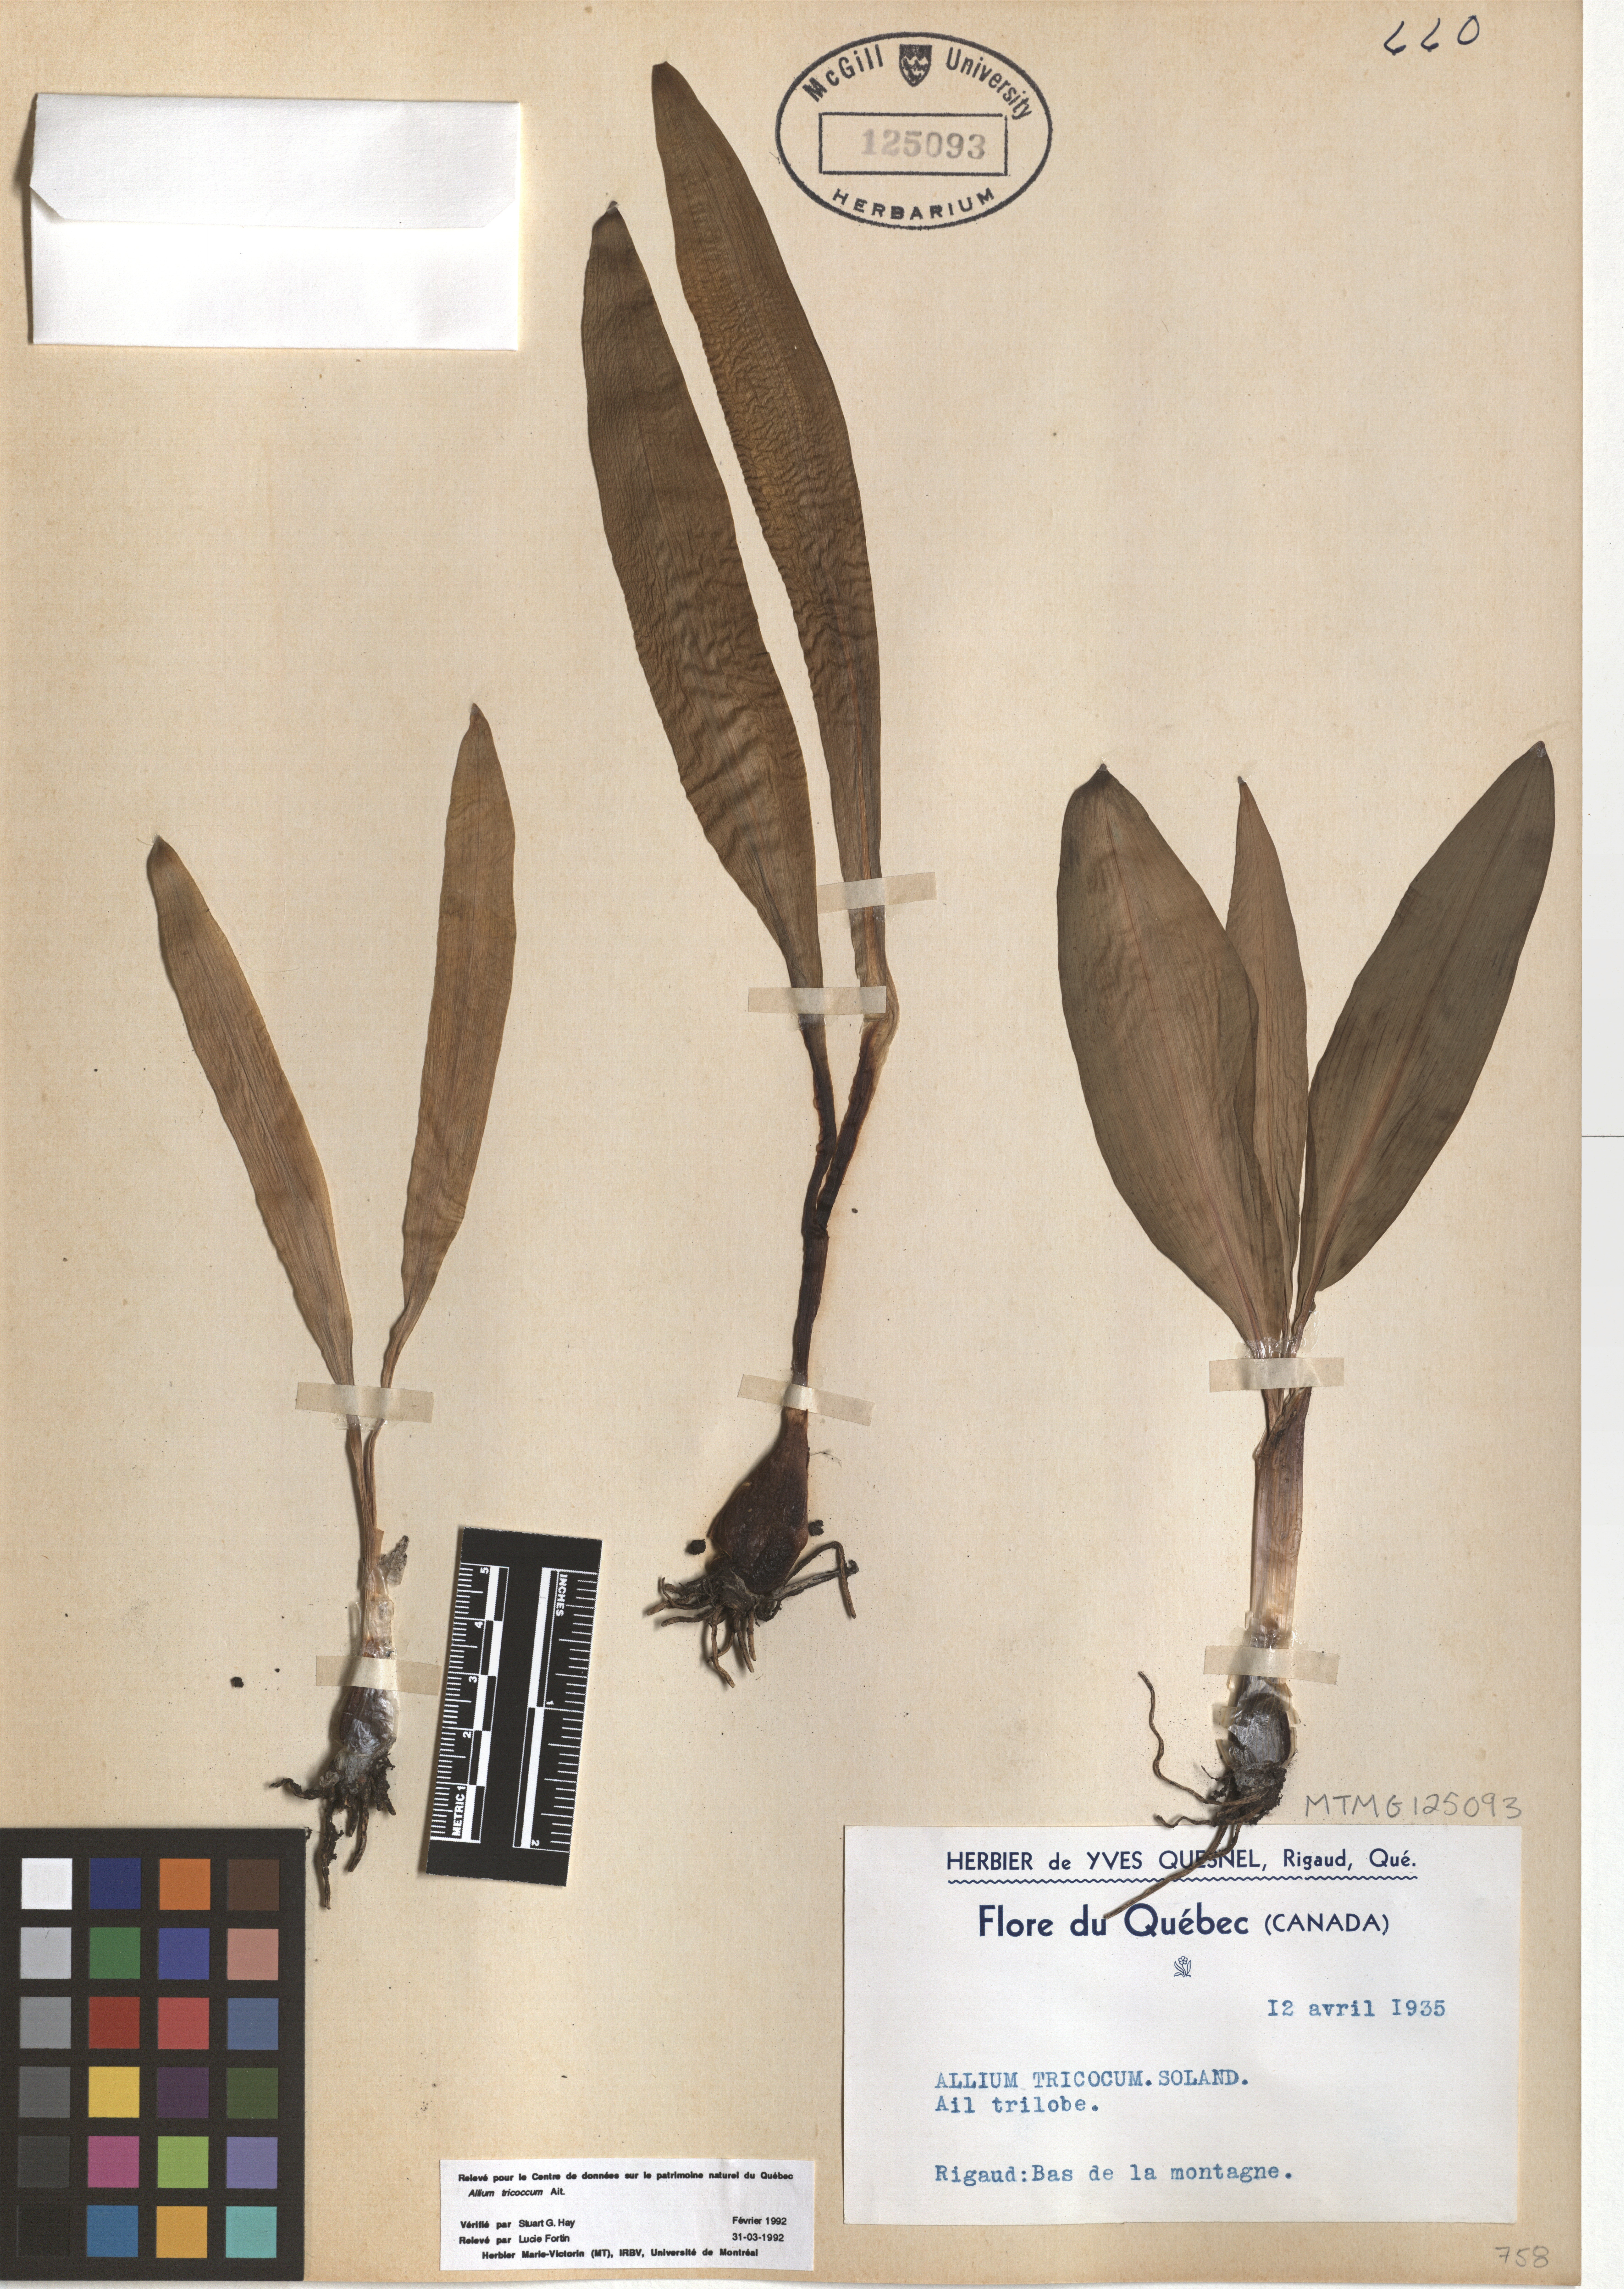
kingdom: Plantae
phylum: Tracheophyta
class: Liliopsida
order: Asparagales
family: Amaryllidaceae
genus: Allium
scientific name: Allium tricoccum
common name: Ramp
